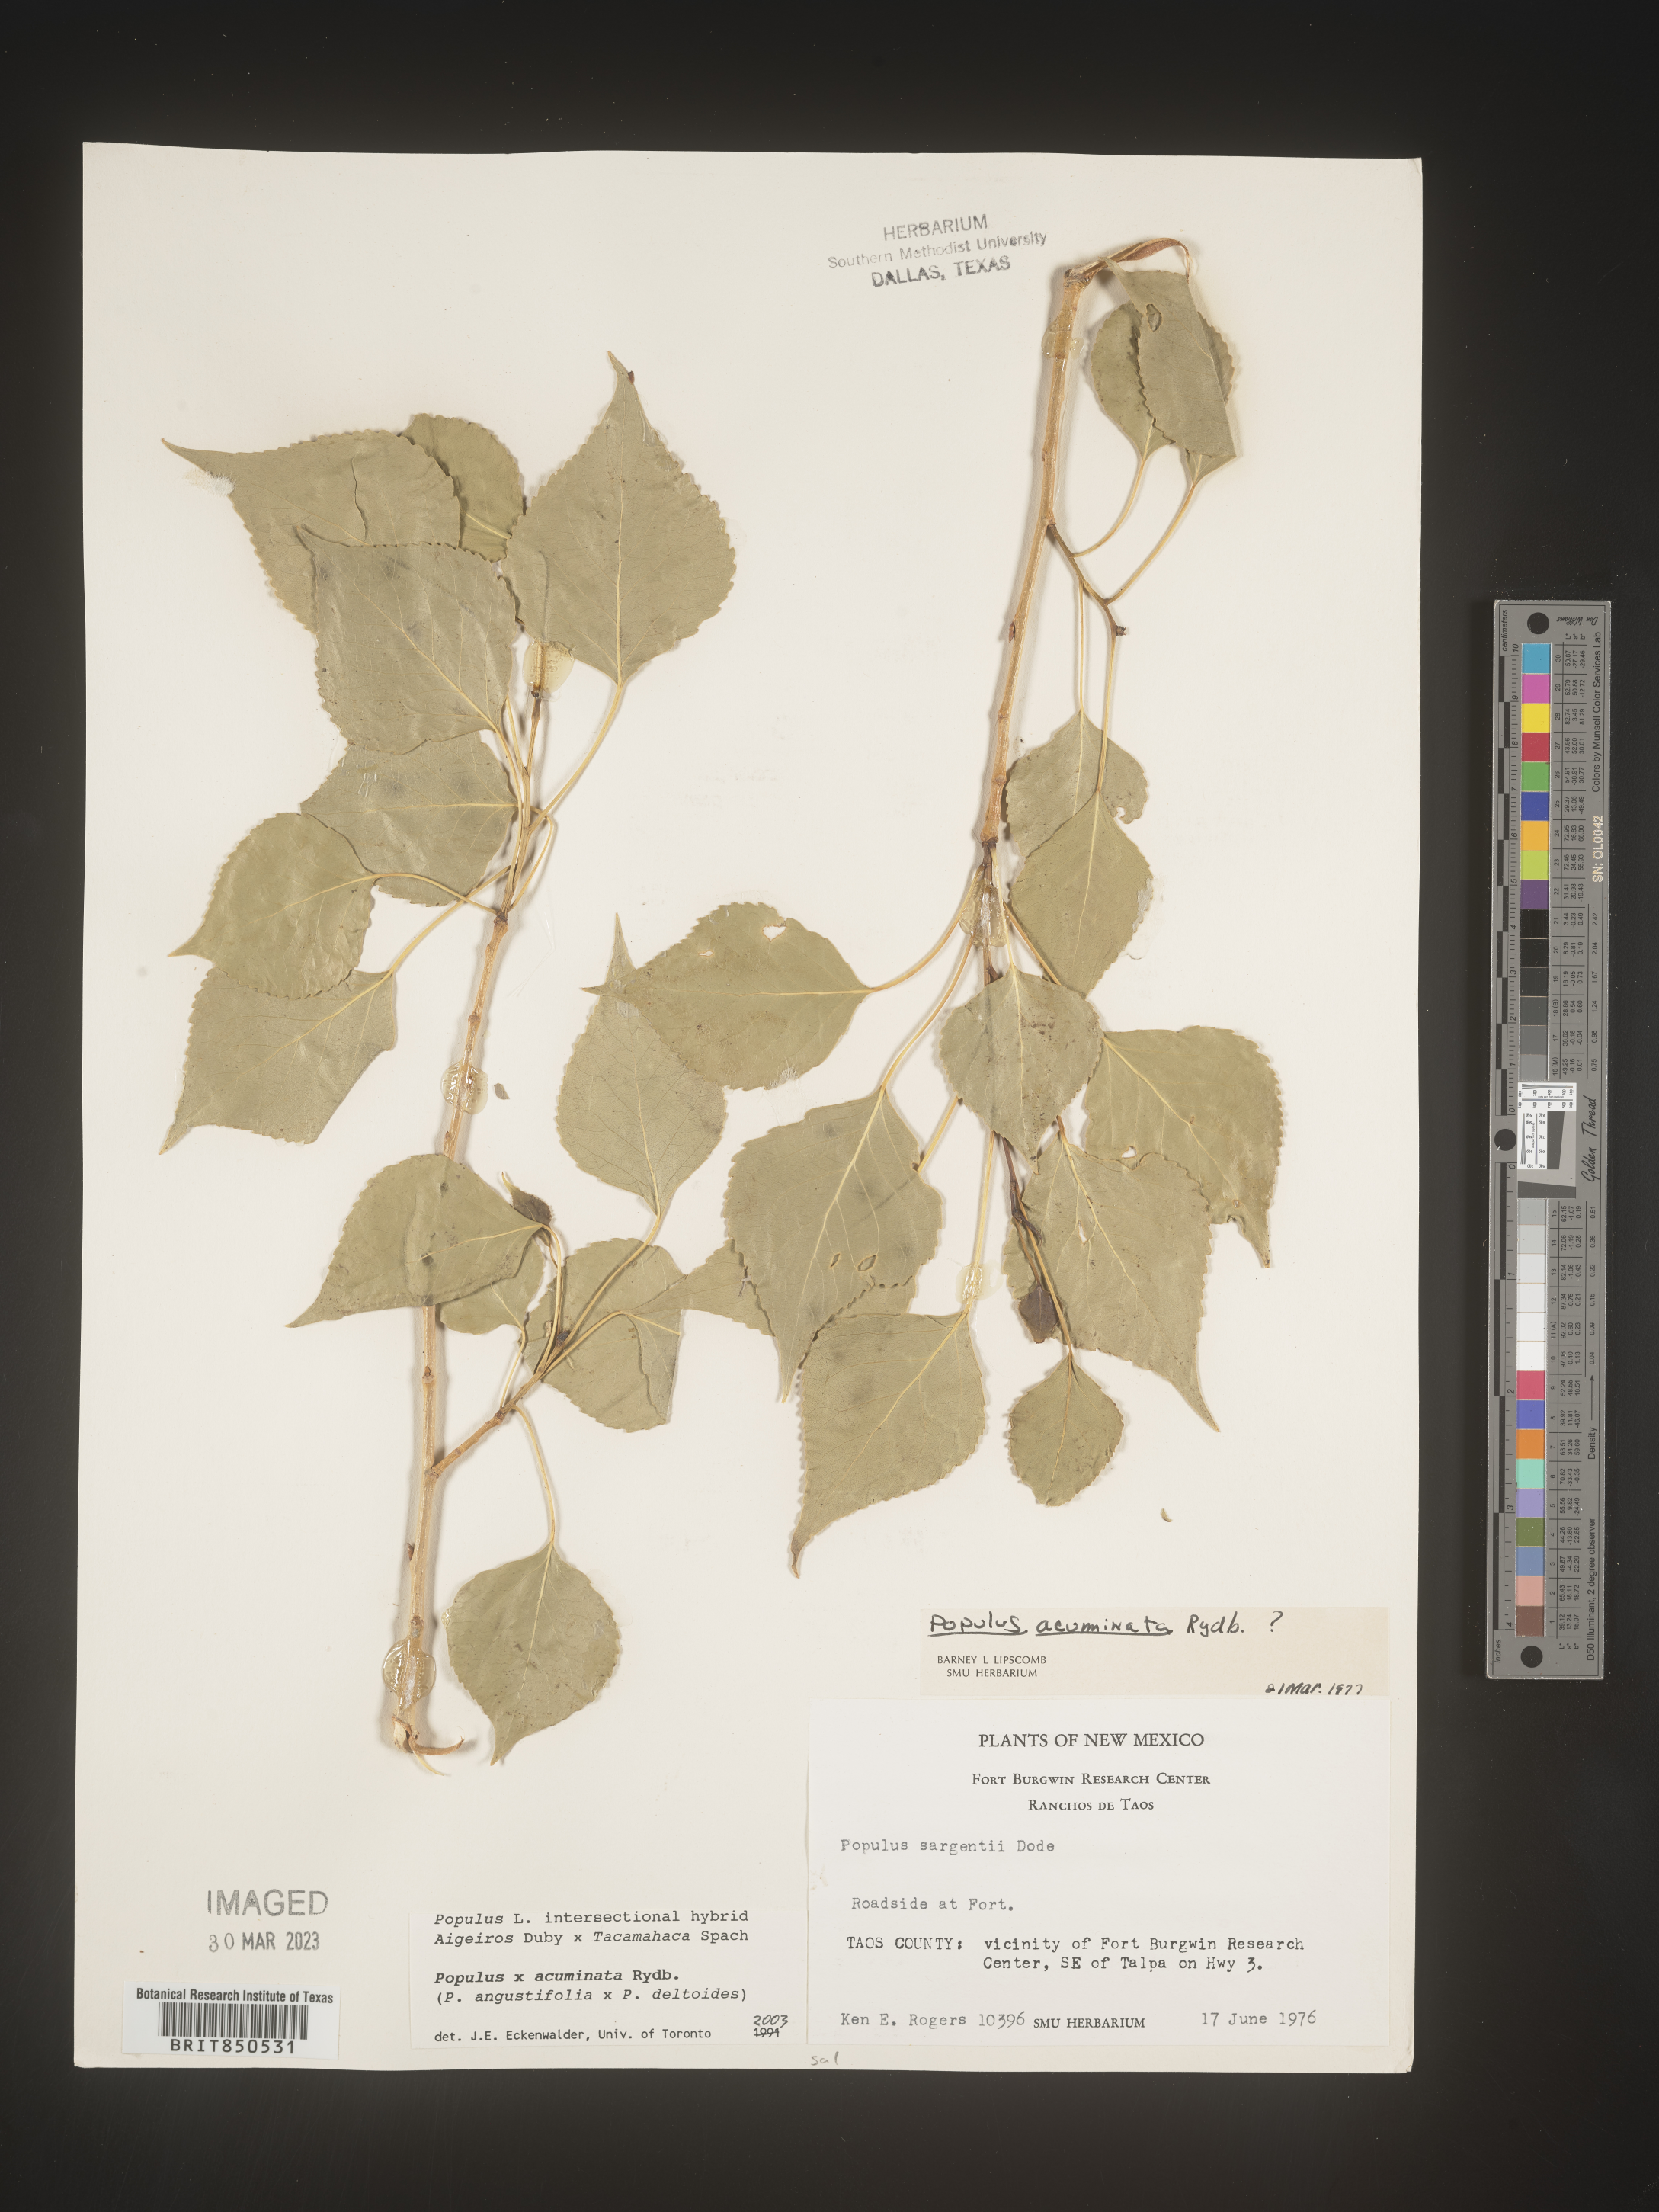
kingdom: Plantae
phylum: Tracheophyta
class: Magnoliopsida
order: Malpighiales
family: Salicaceae
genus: Populus
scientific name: Populus trichocarpa
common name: Black cottonwood
